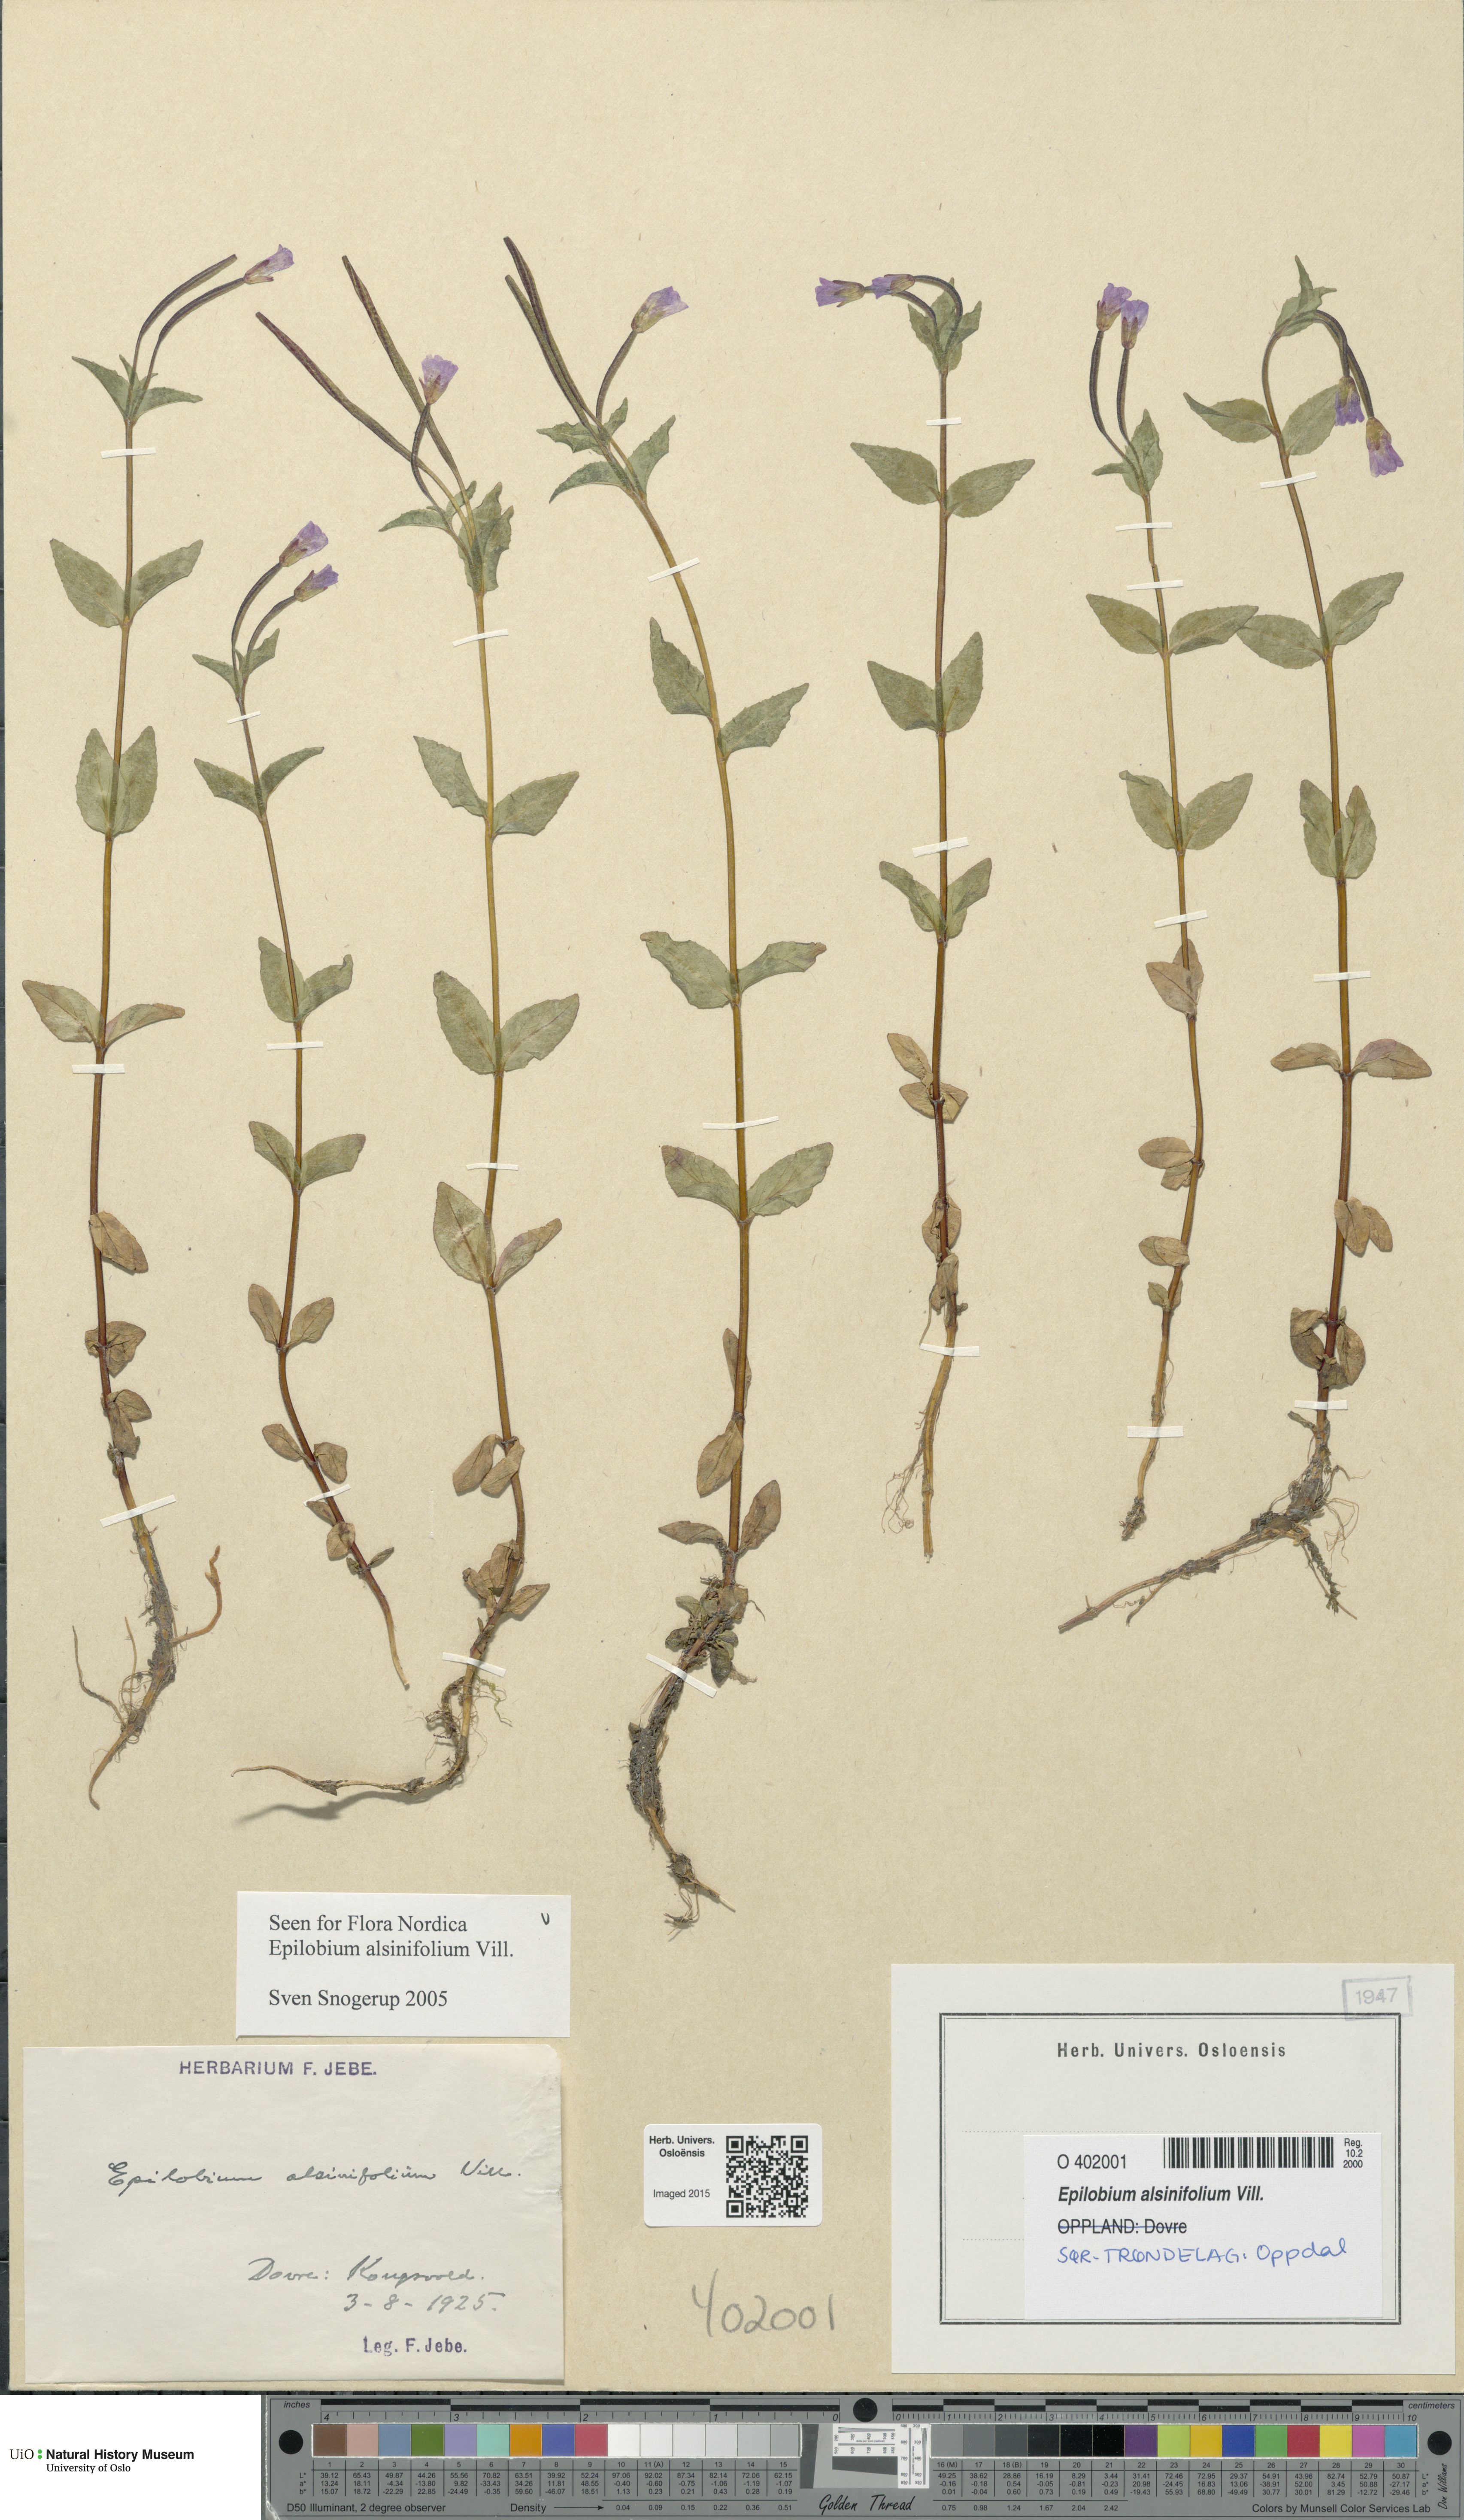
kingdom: Plantae
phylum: Tracheophyta
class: Magnoliopsida
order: Myrtales
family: Onagraceae
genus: Epilobium
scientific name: Epilobium alsinifolium
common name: Chickweed willowherb
